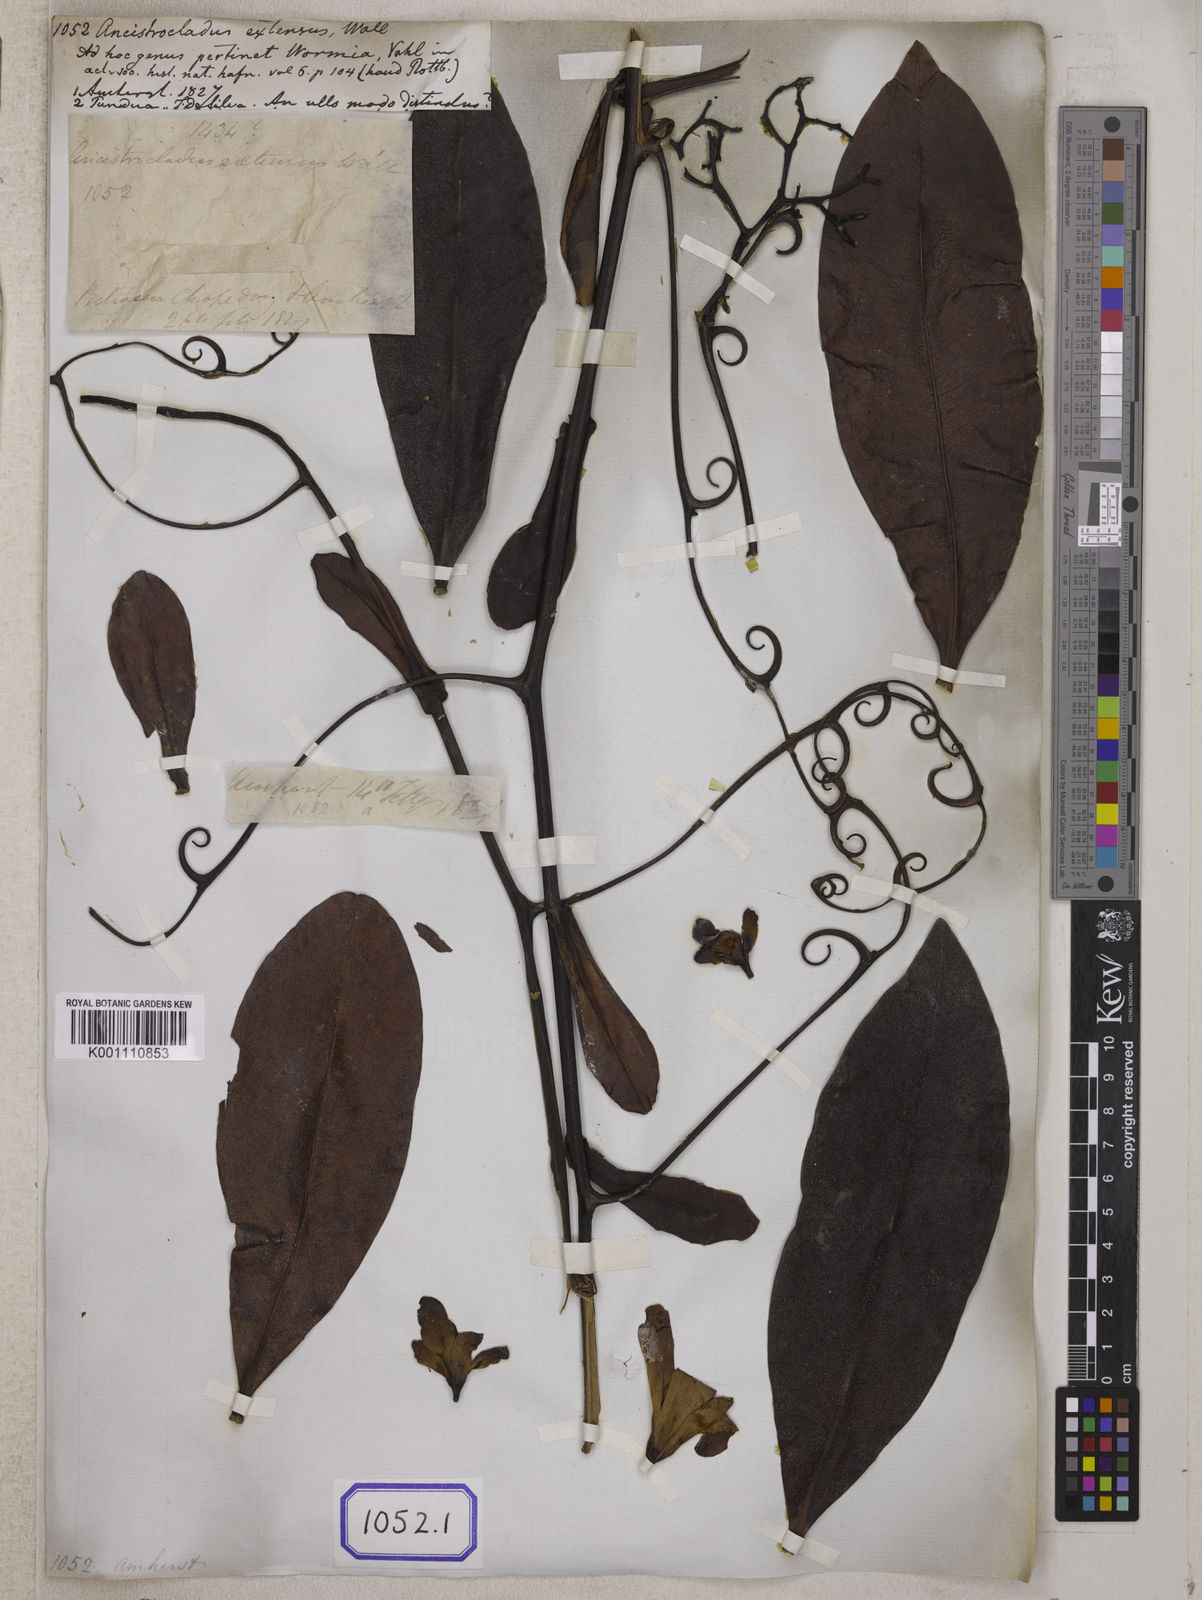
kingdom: Plantae
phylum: Tracheophyta
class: Magnoliopsida
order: Caryophyllales
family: Ancistrocladaceae
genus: Ancistrocladus
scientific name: Ancistrocladus
